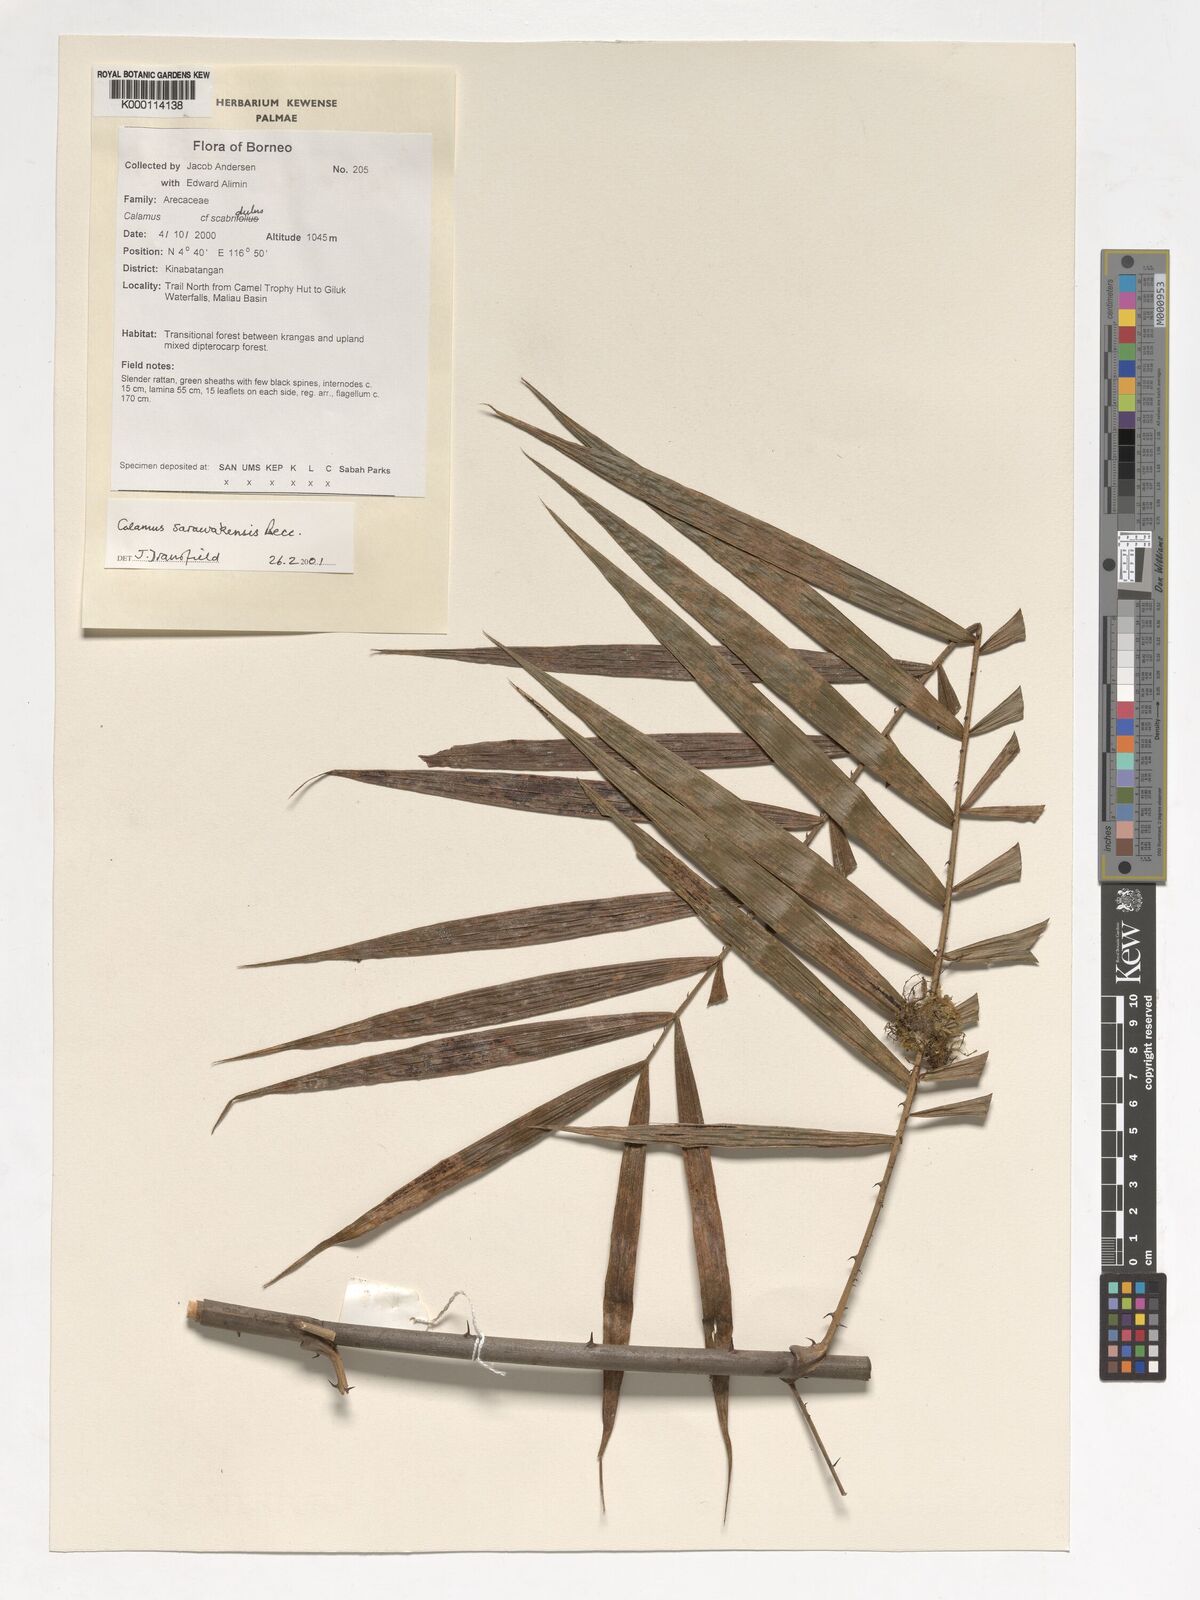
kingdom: Plantae
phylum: Tracheophyta
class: Liliopsida
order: Arecales
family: Arecaceae
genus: Calamus
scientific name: Calamus sarawakensis
